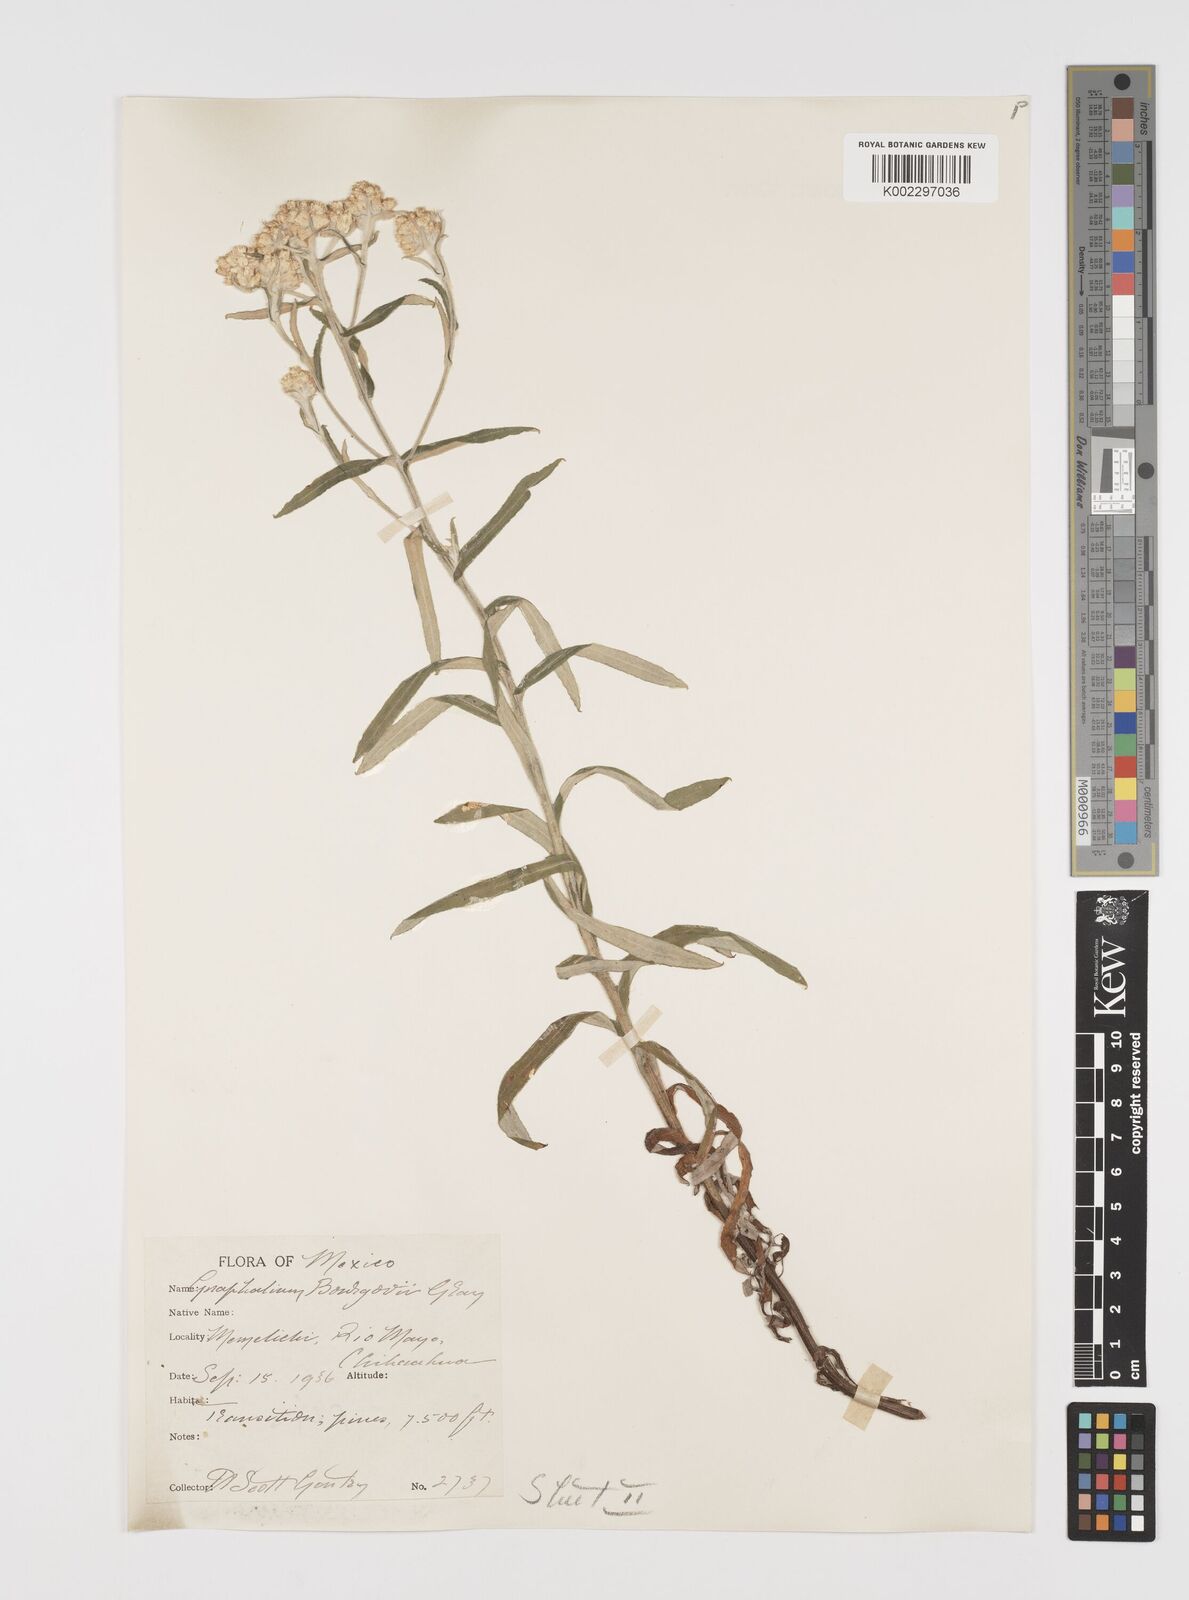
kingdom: Plantae
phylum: Tracheophyta
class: Magnoliopsida
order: Asterales
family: Asteraceae
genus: Pseudognaphalium
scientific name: Pseudognaphalium bourgovii
